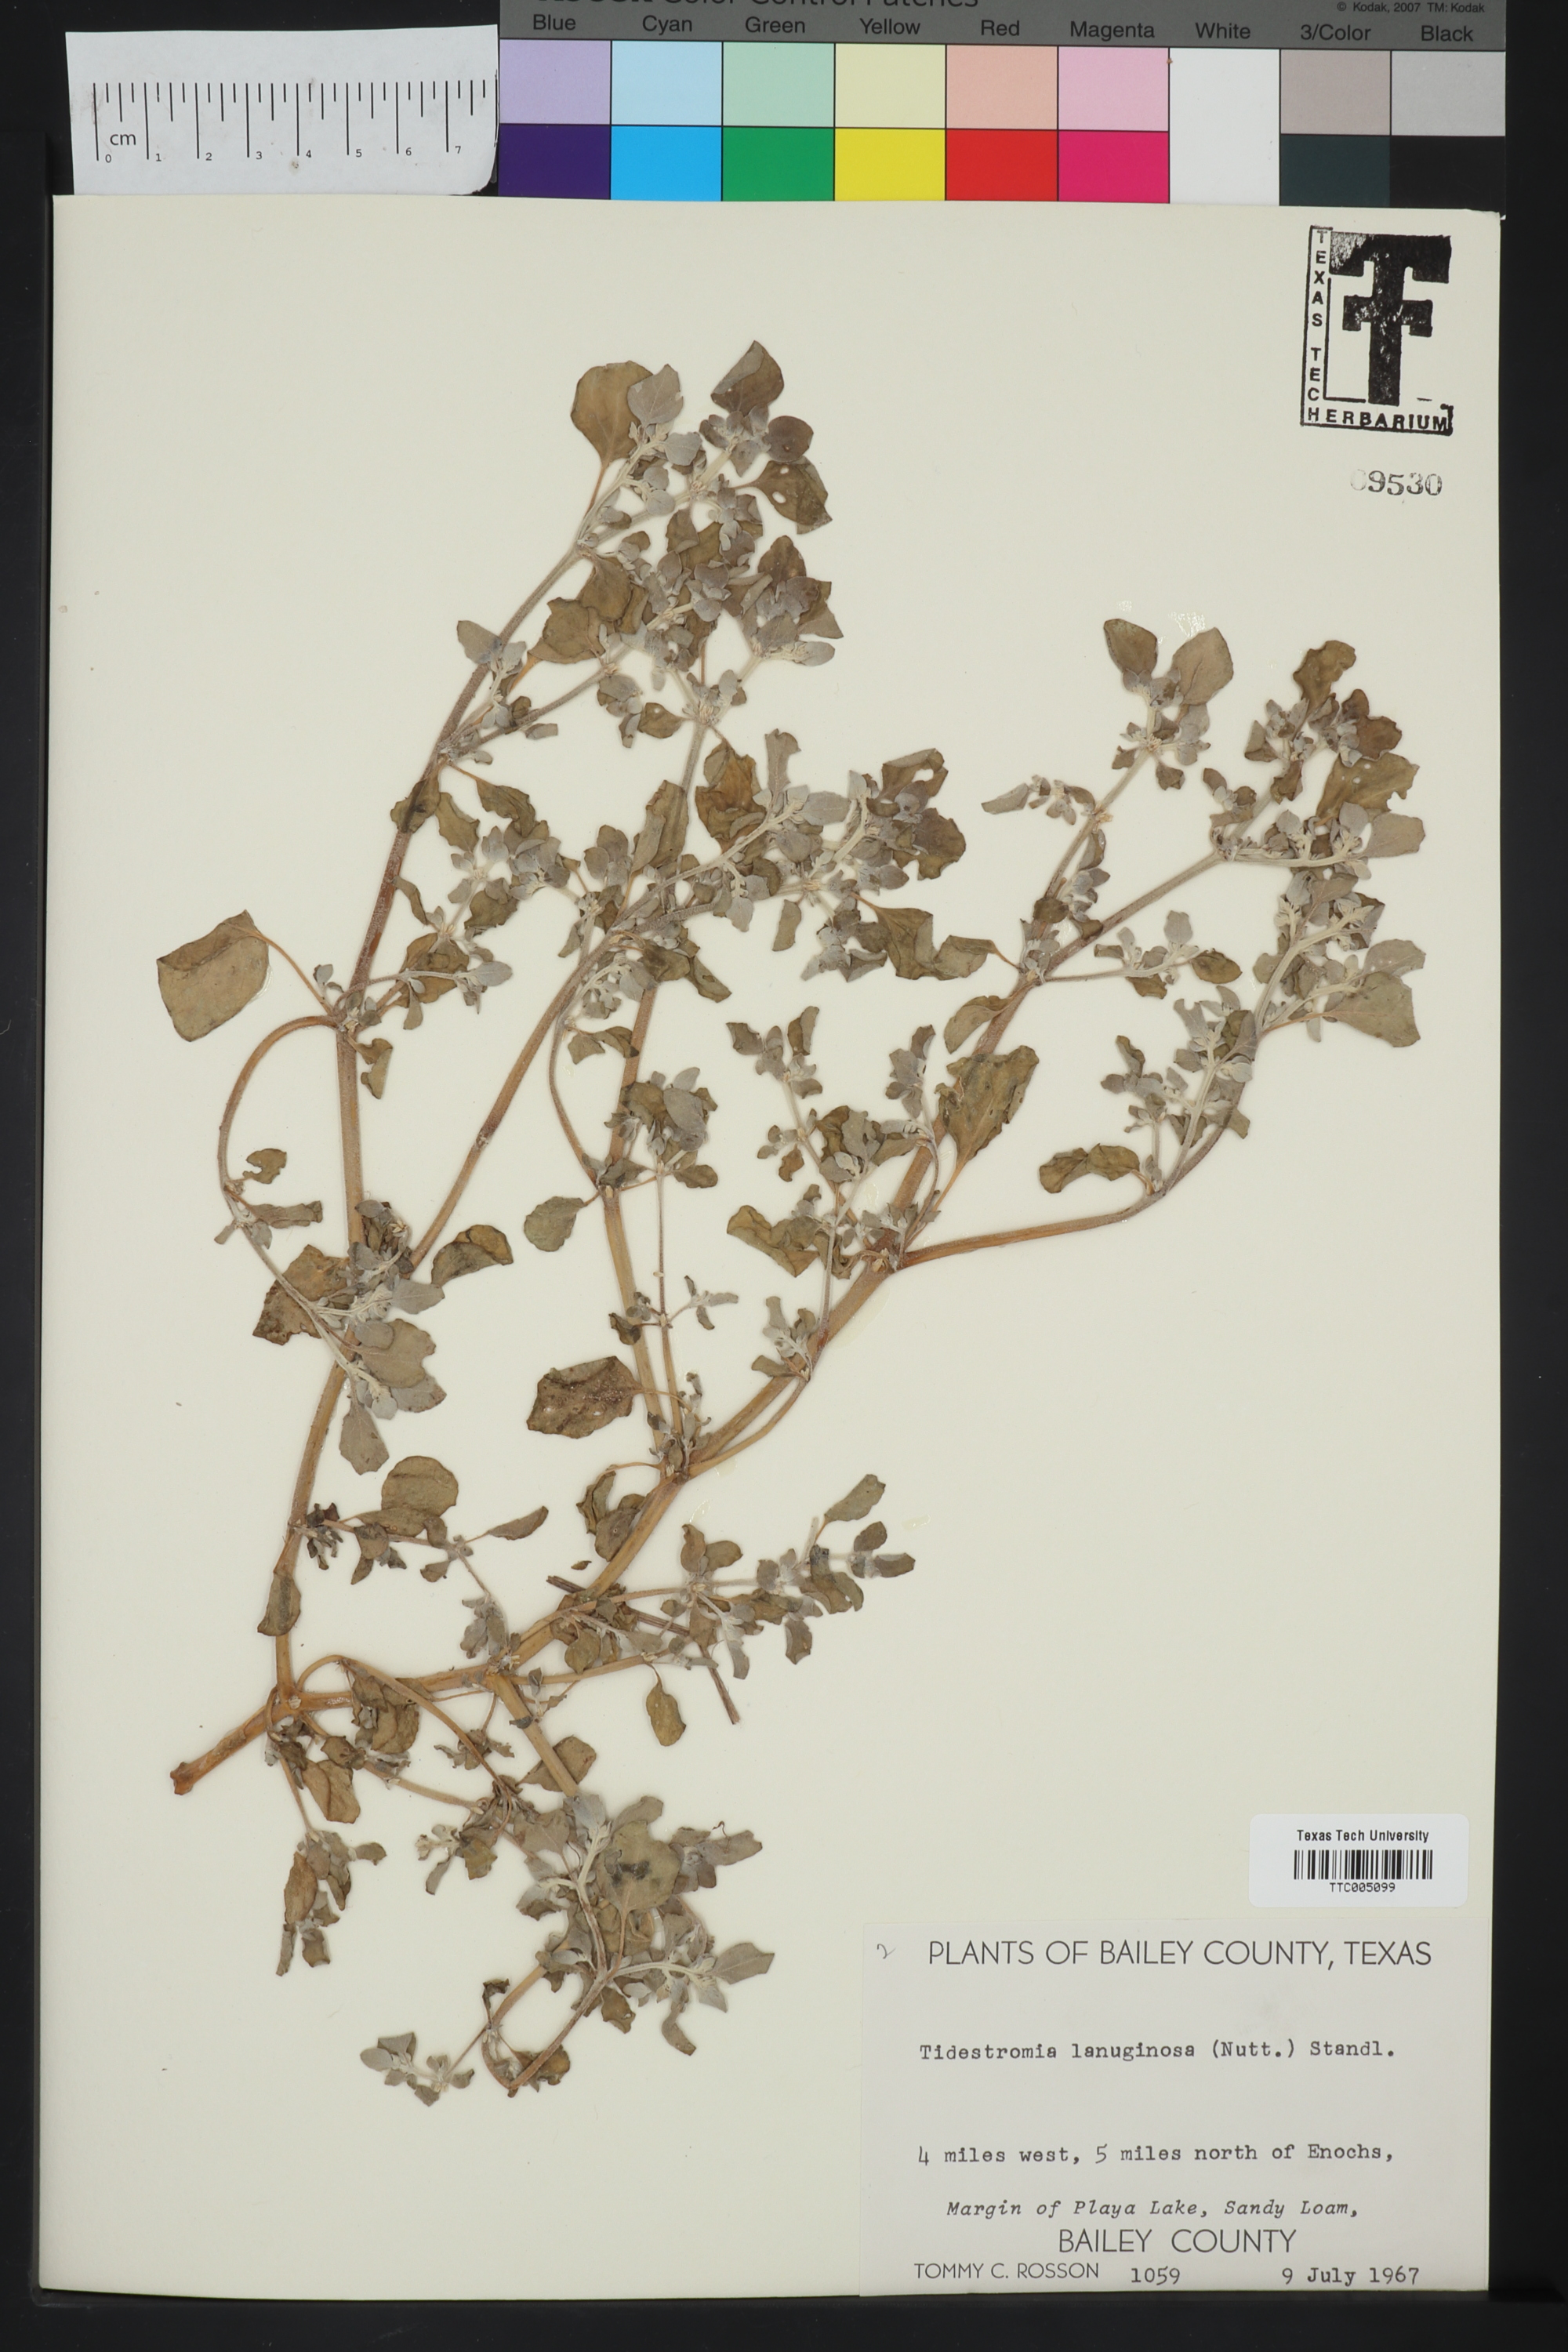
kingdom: Plantae
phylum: Tracheophyta
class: Magnoliopsida
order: Caryophyllales
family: Amaranthaceae
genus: Tidestromia
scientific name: Tidestromia lanuginosa
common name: Woolly tidestromia
